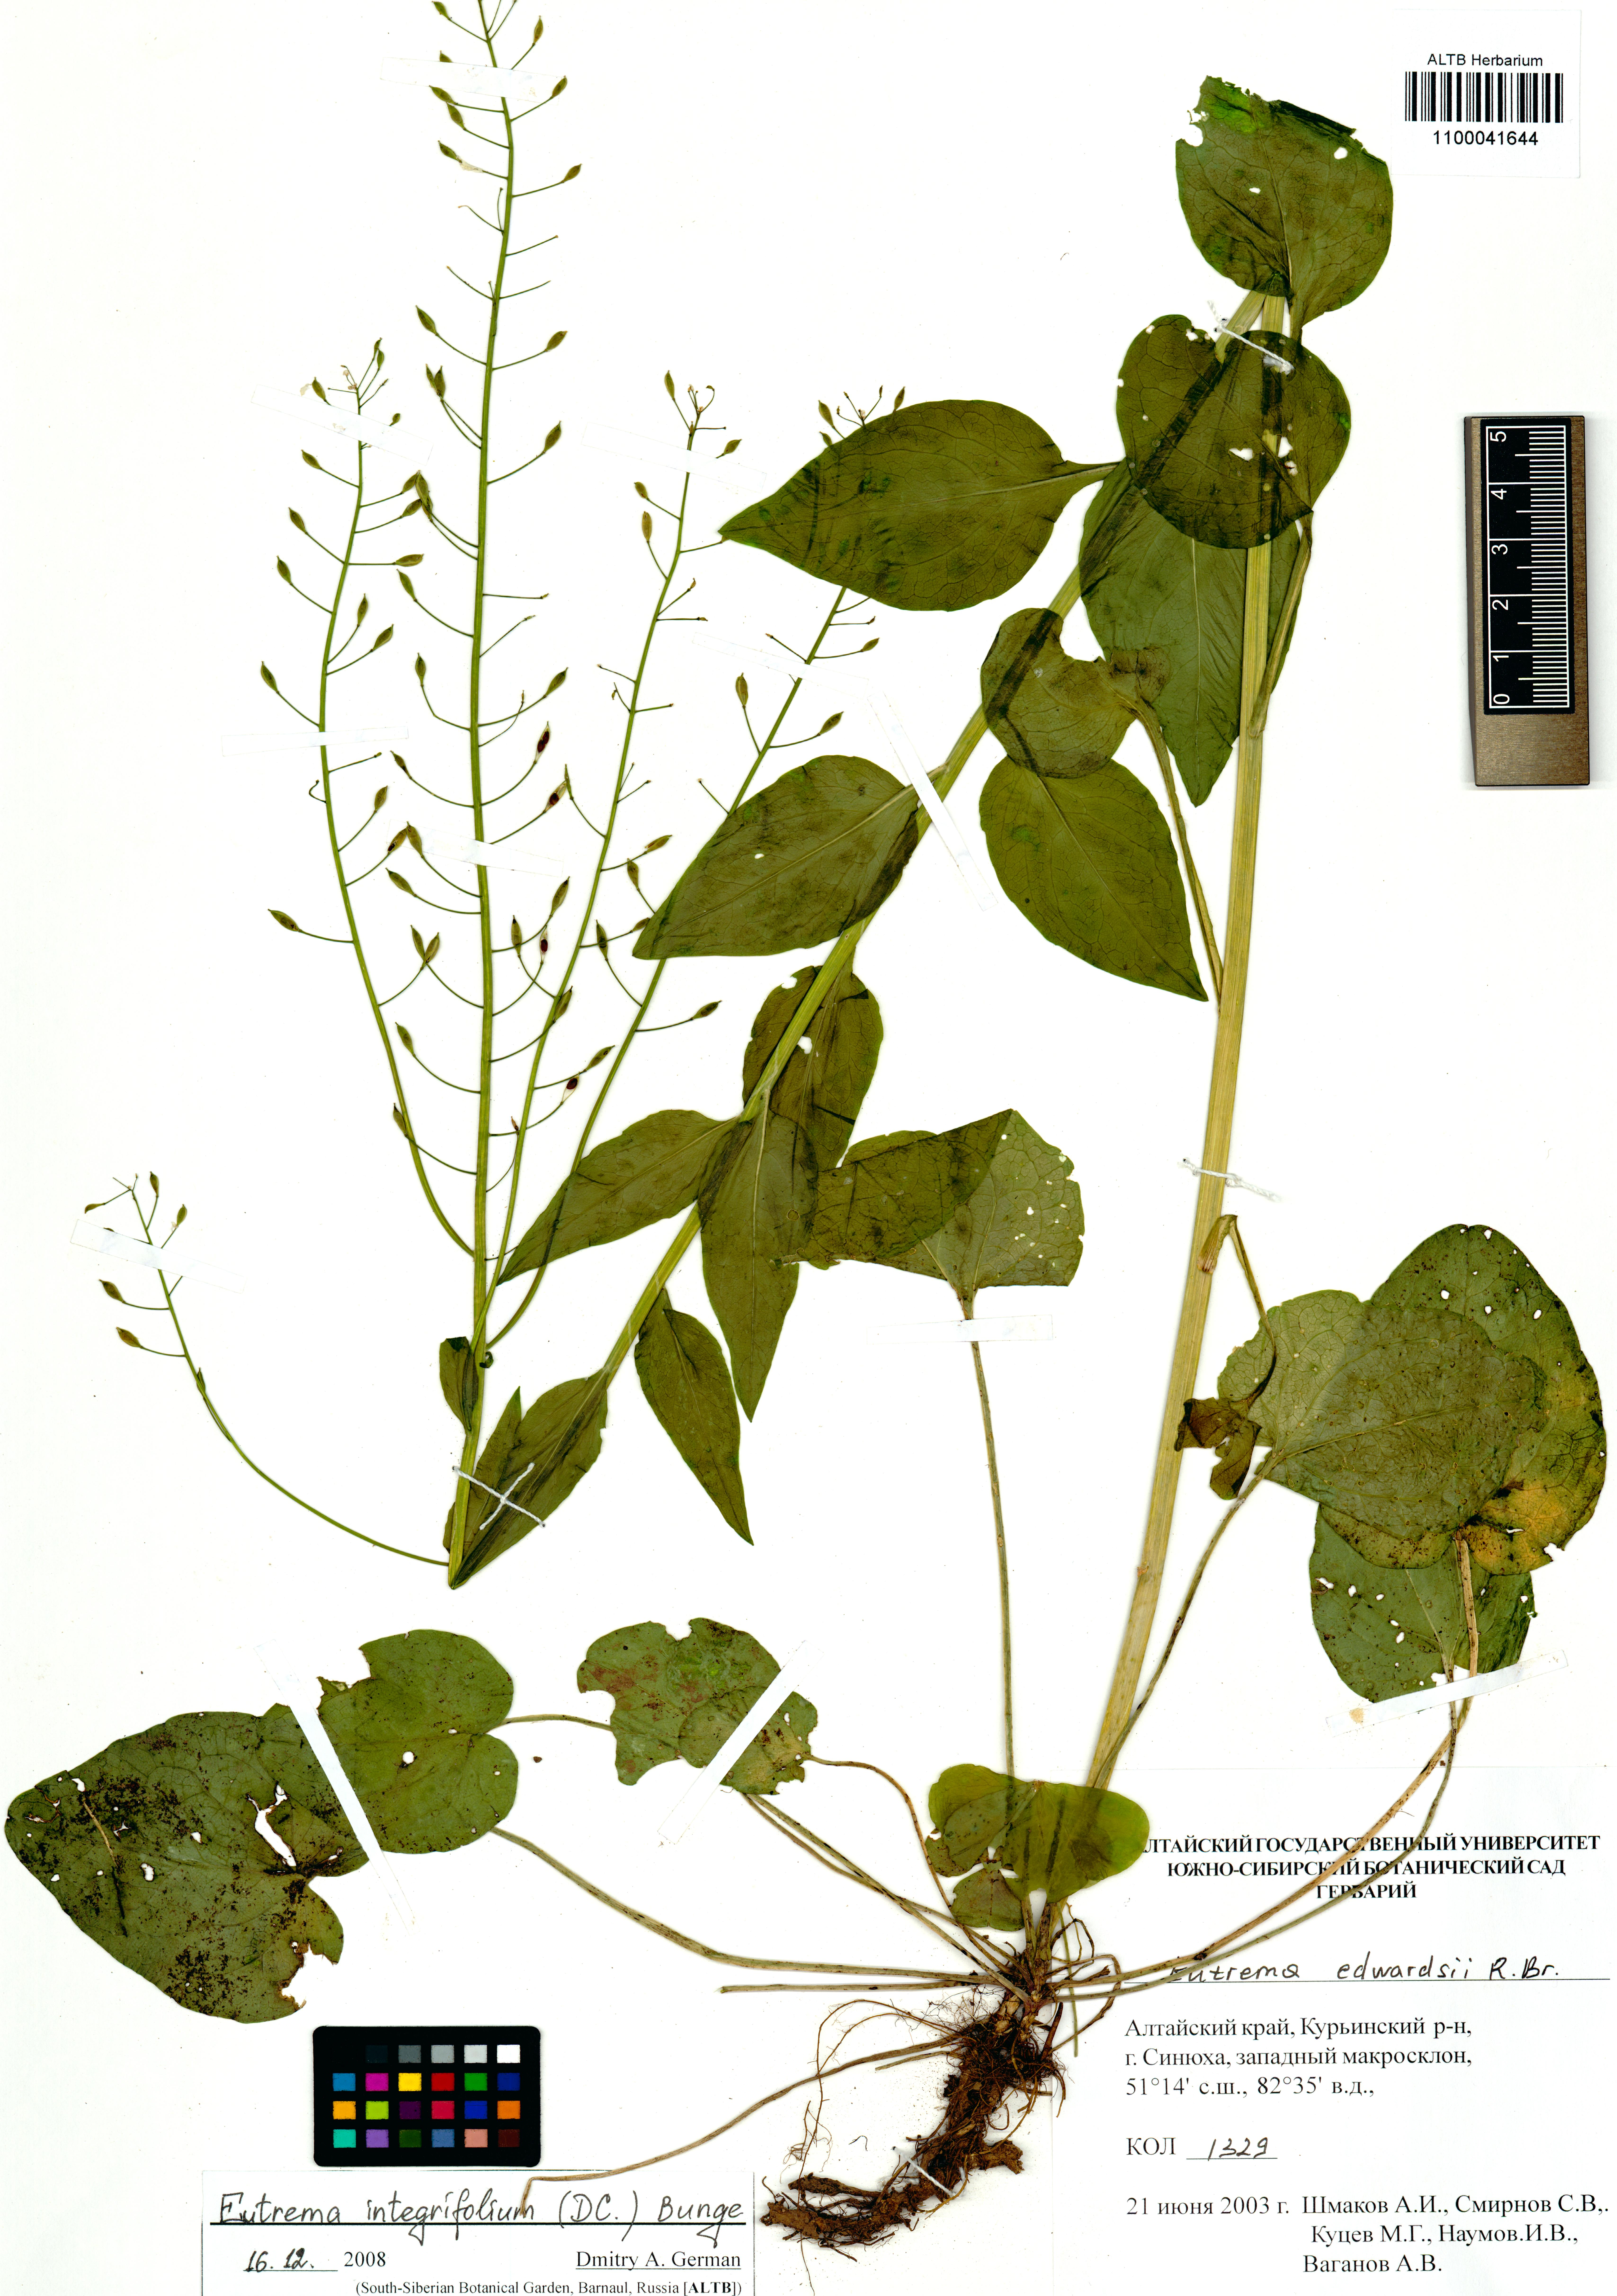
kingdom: Plantae
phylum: Tracheophyta
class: Magnoliopsida
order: Brassicales
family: Brassicaceae
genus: Eutrema
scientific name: Eutrema integrifolium
